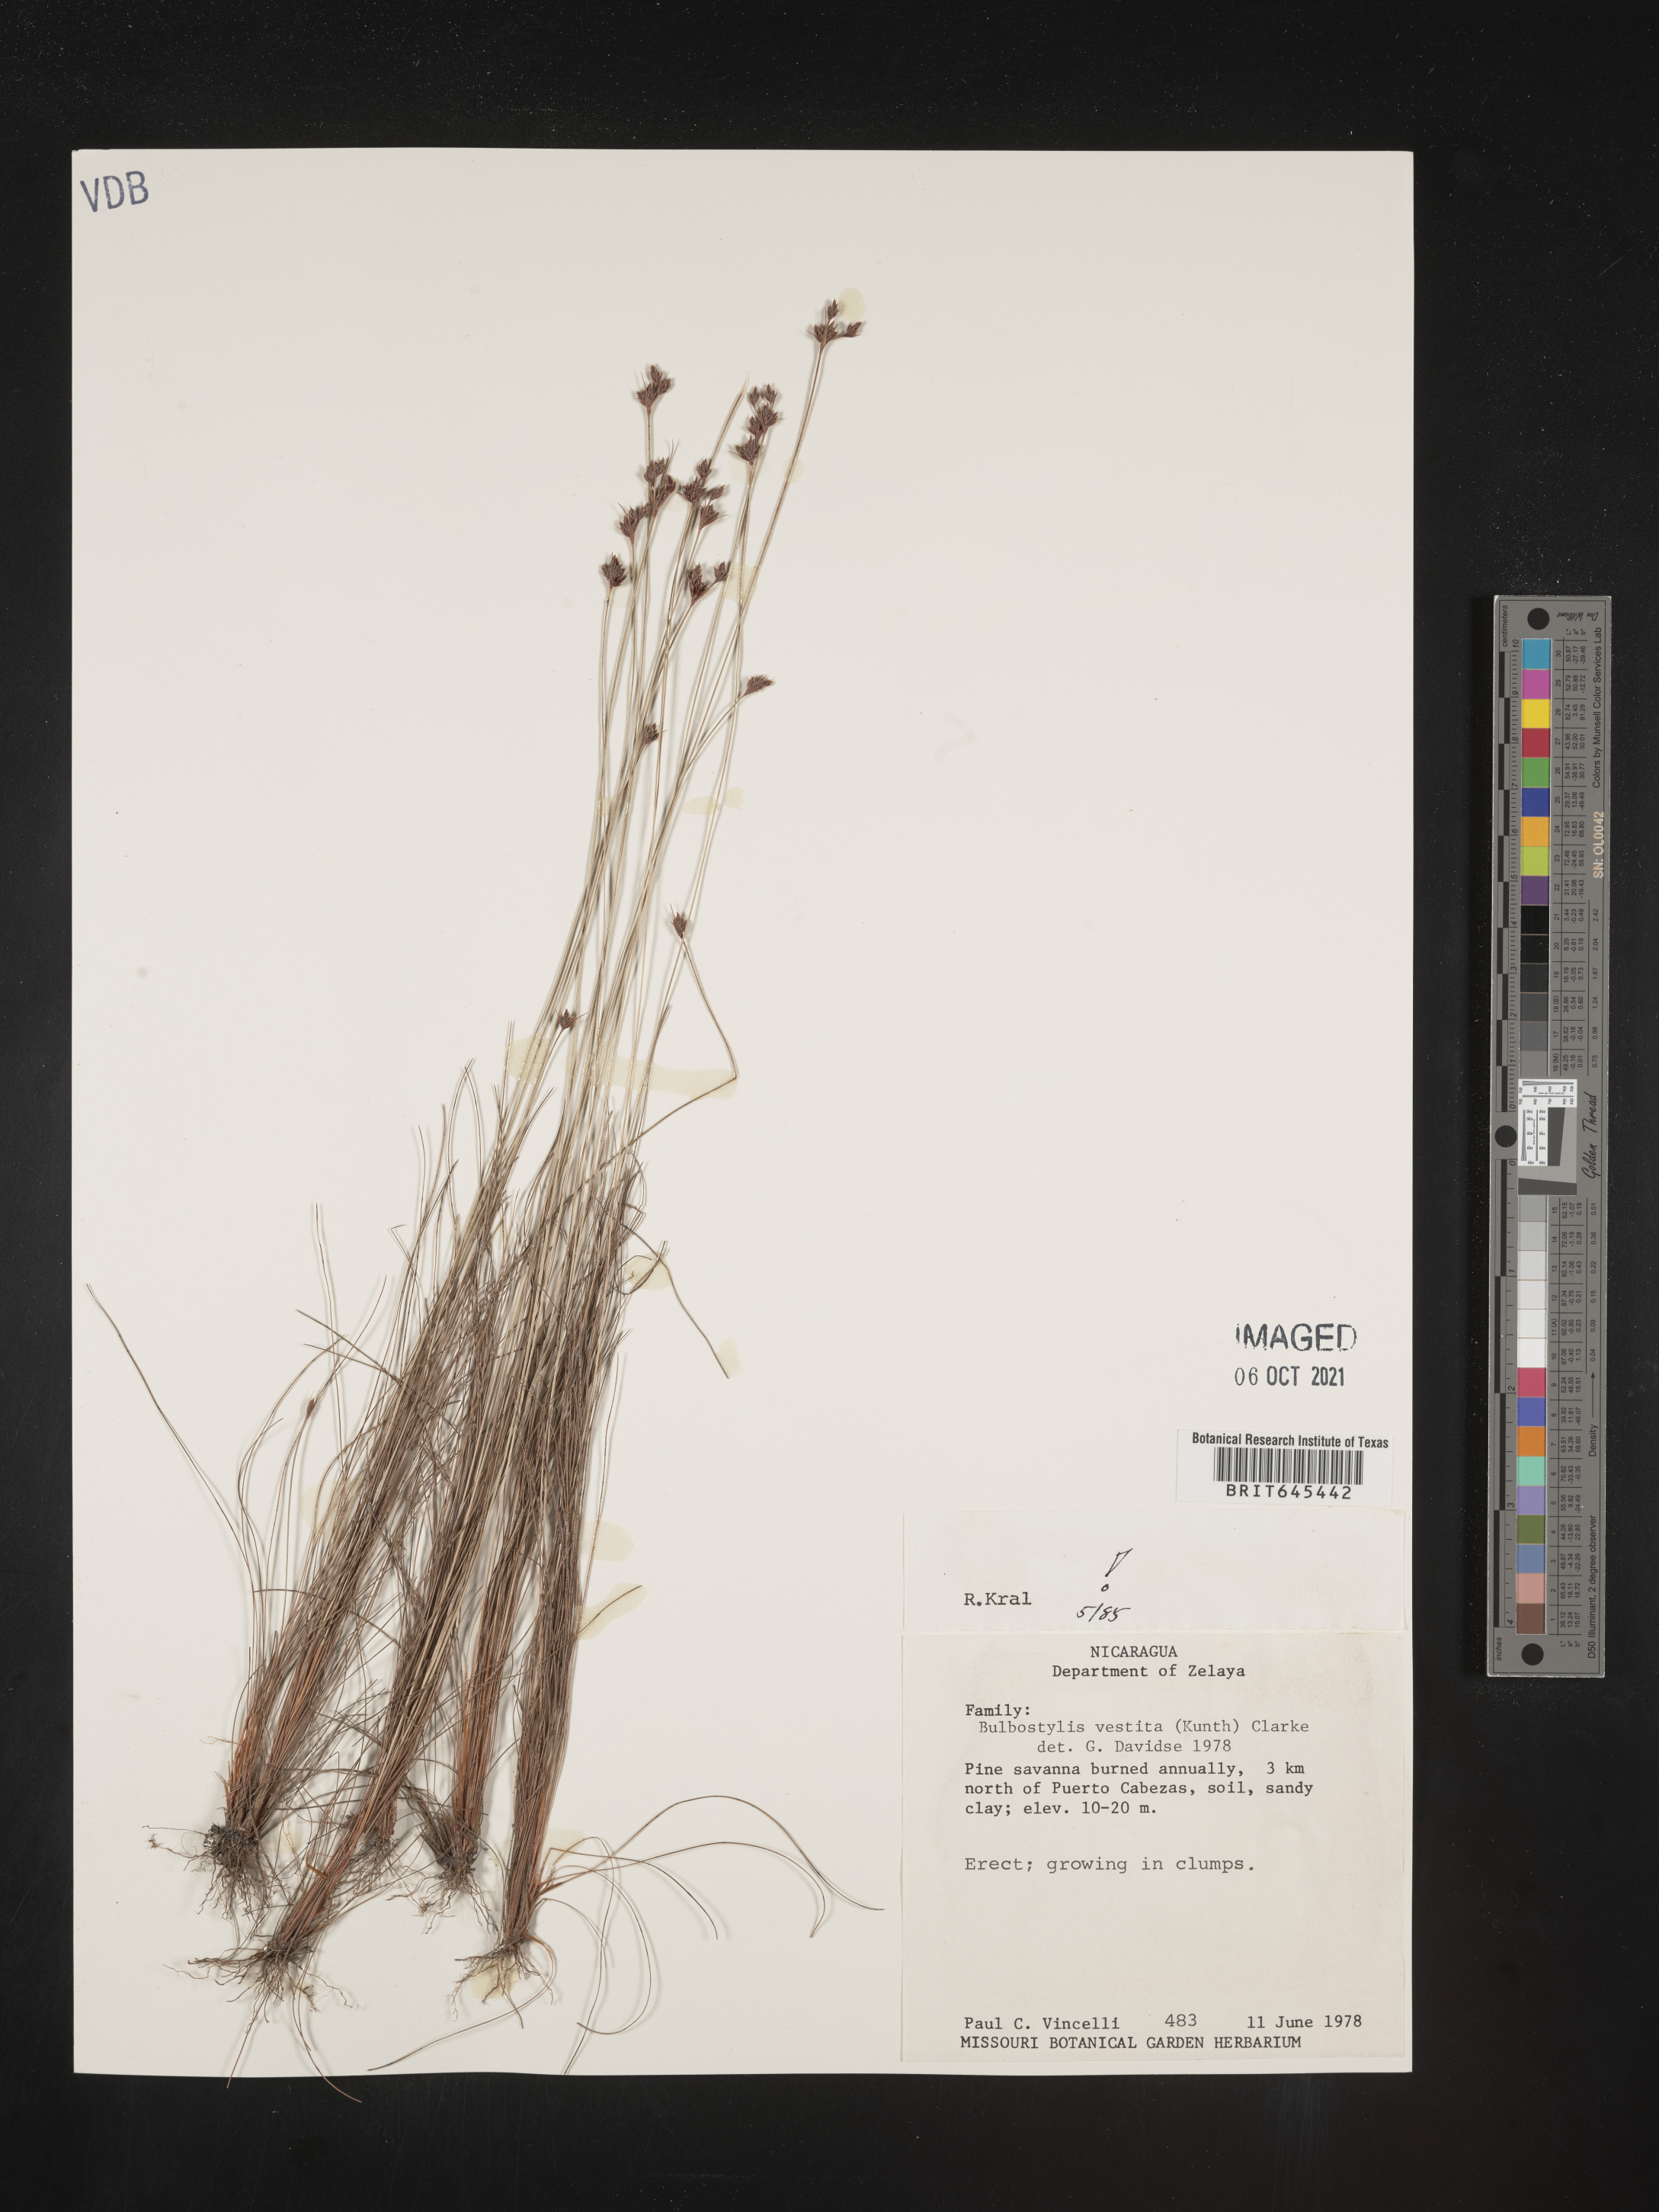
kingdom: Plantae
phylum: Tracheophyta
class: Liliopsida
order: Poales
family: Cyperaceae
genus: Bulbostylis
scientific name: Bulbostylis vestita
